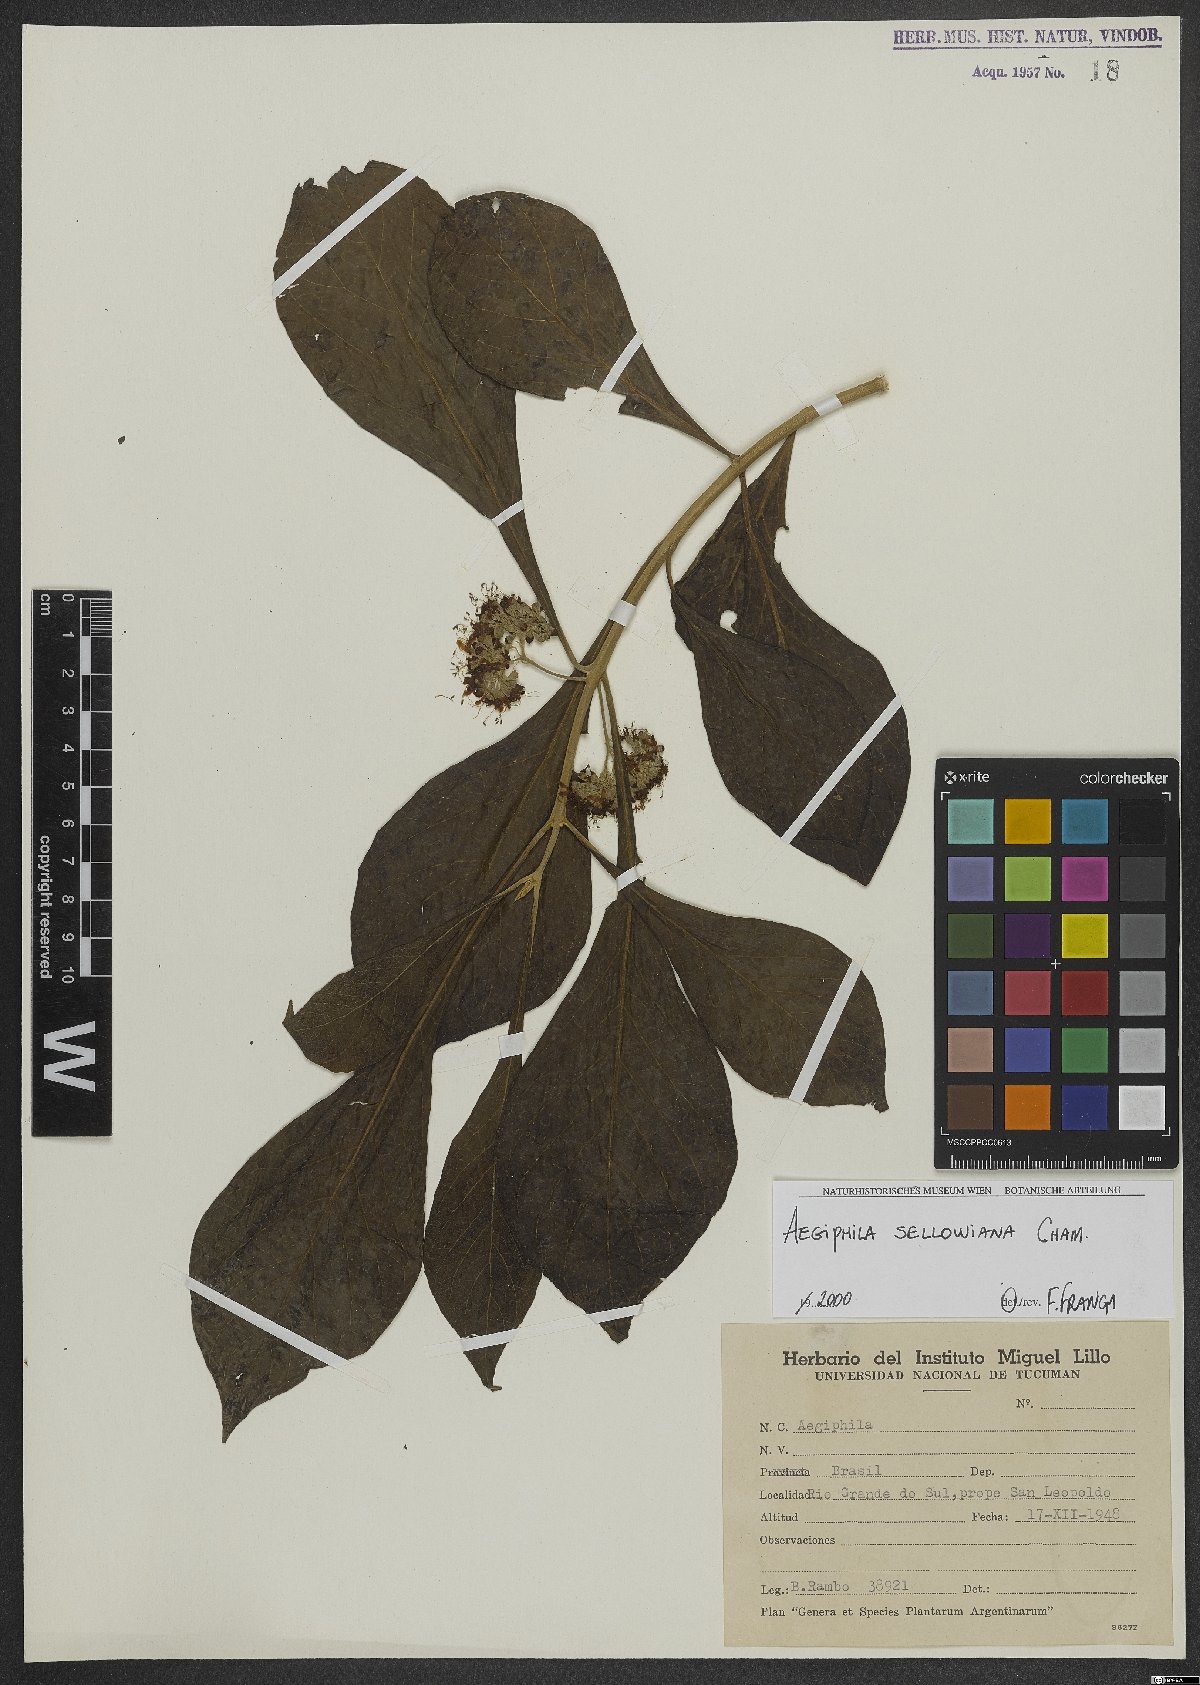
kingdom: Plantae
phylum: Tracheophyta
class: Magnoliopsida
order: Lamiales
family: Lamiaceae
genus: Aegiphila
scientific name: Aegiphila verticillata
